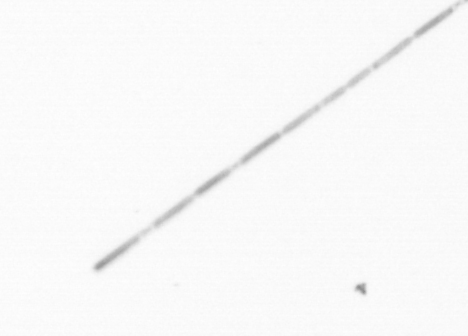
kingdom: Chromista
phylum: Ochrophyta
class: Bacillariophyceae
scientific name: Bacillariophyceae
